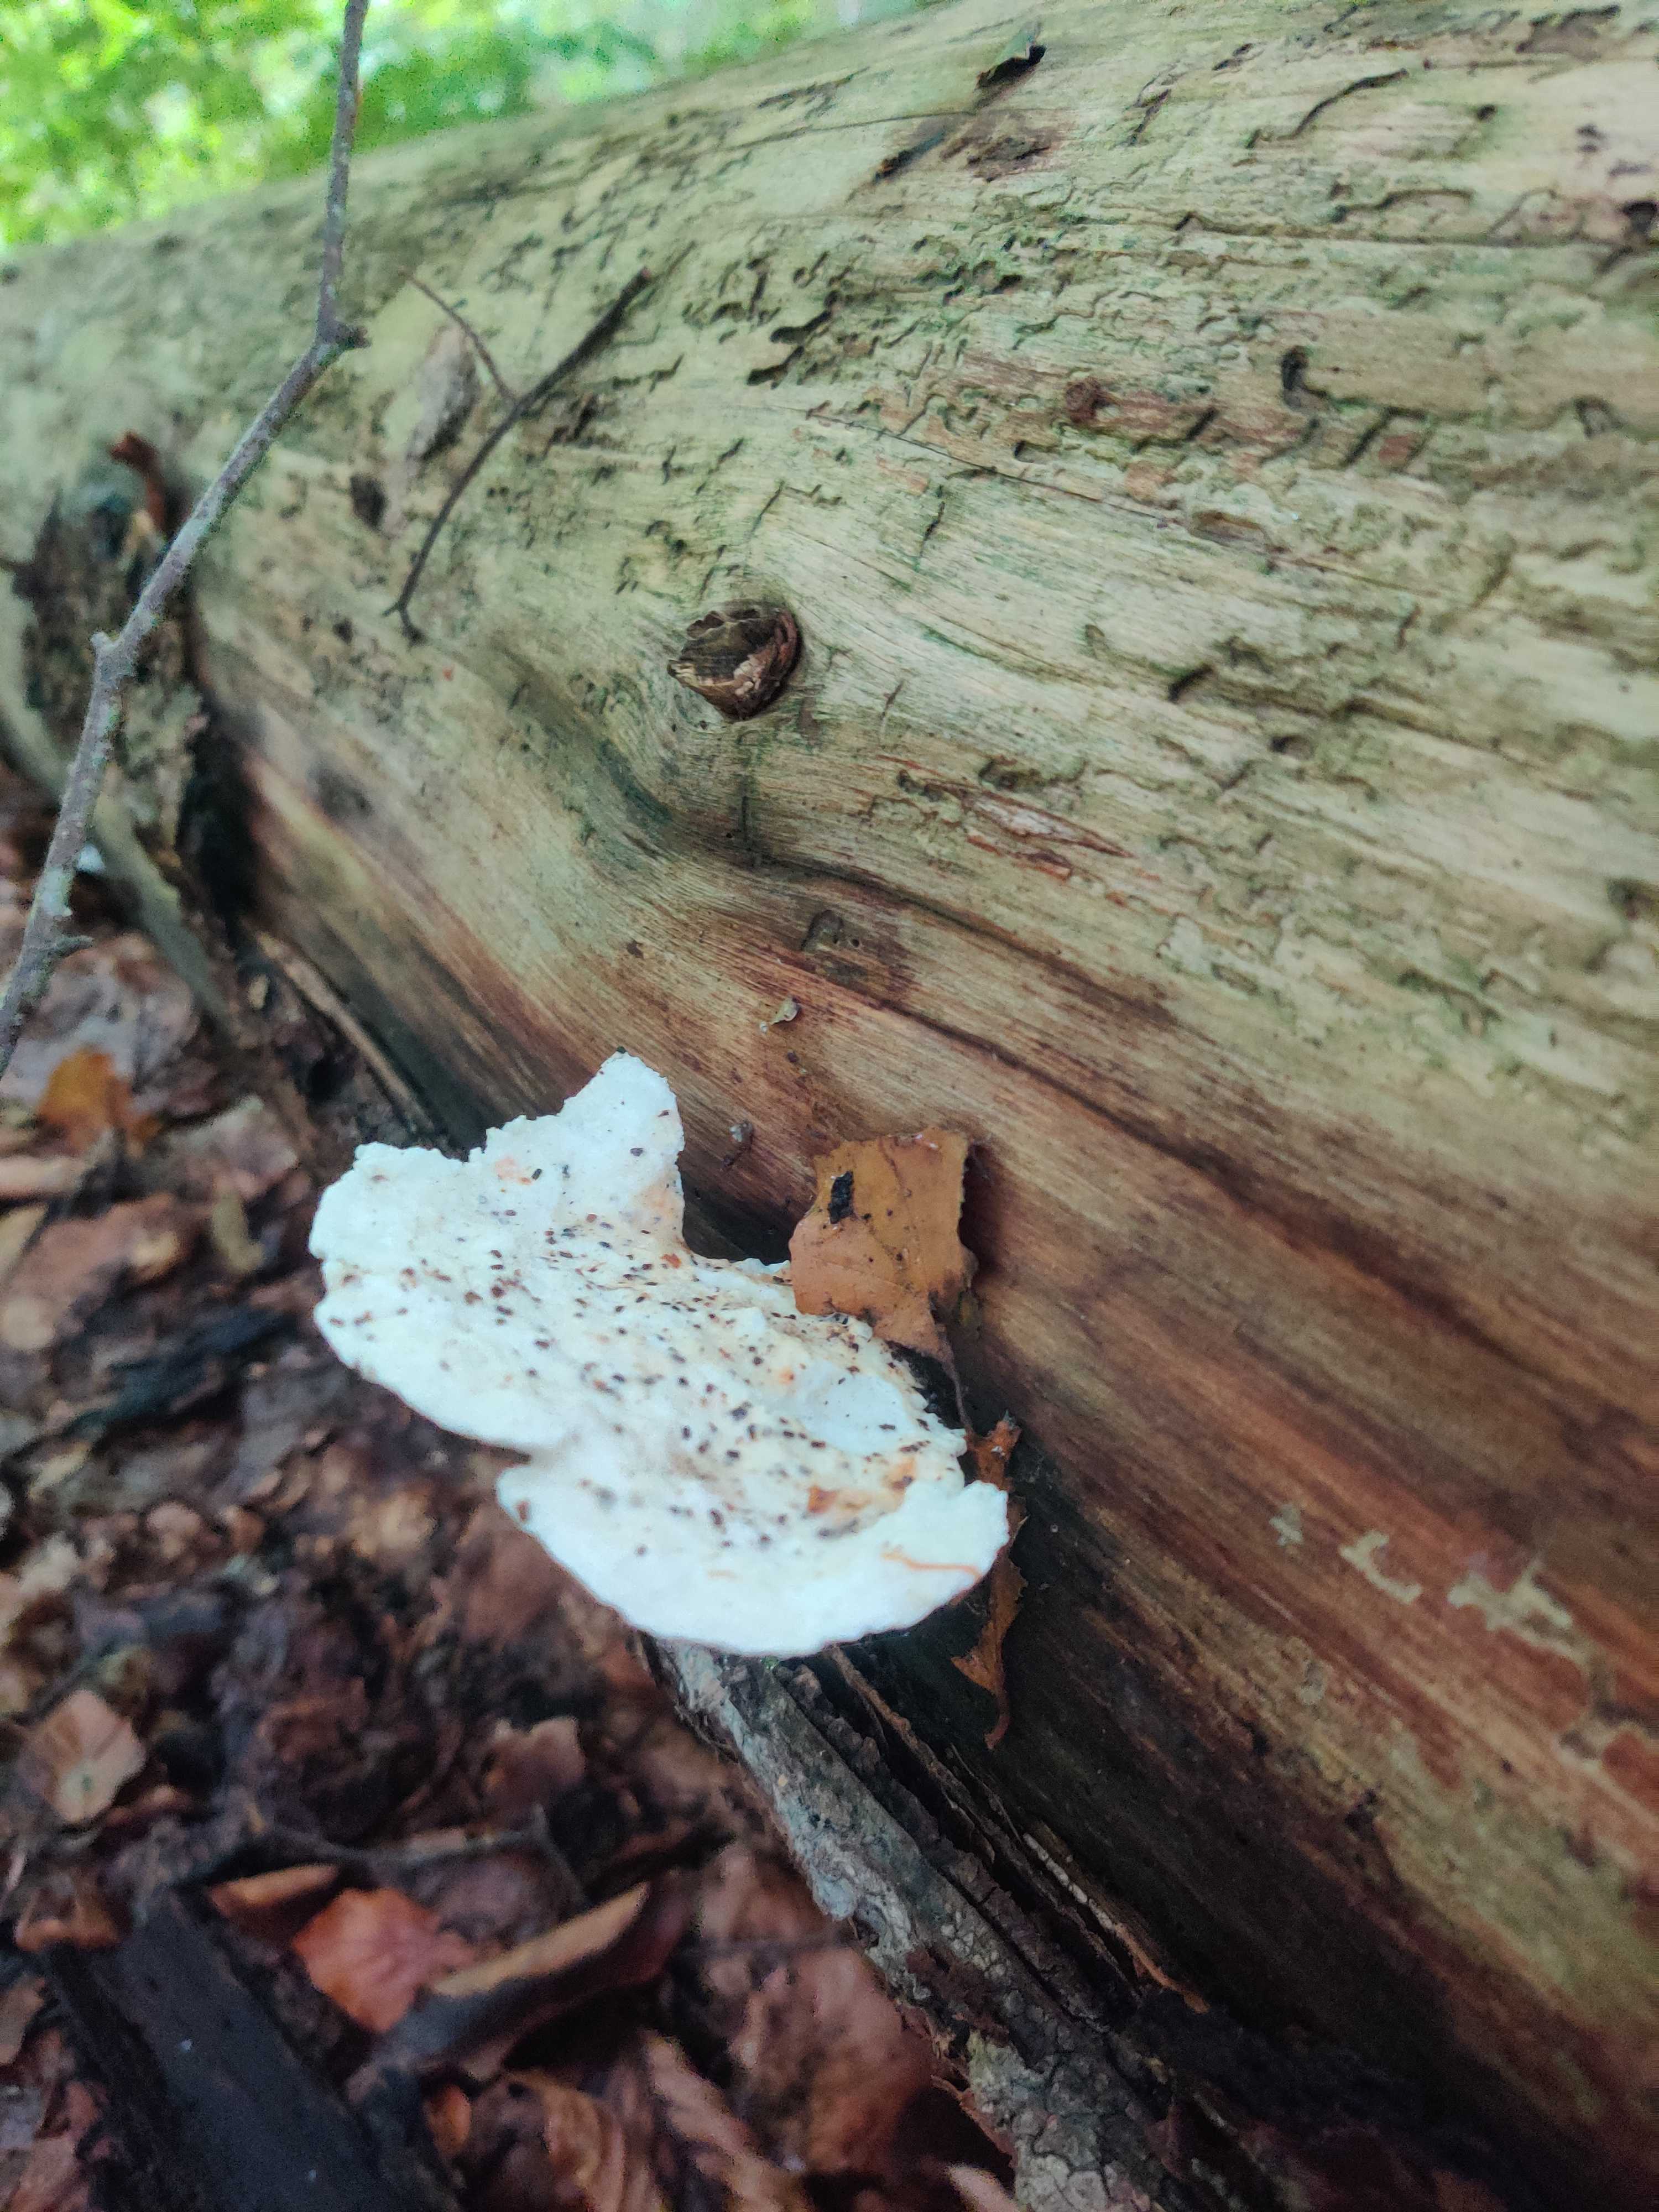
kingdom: Fungi
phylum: Basidiomycota
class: Agaricomycetes
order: Polyporales
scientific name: Polyporales
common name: poresvampordenen
